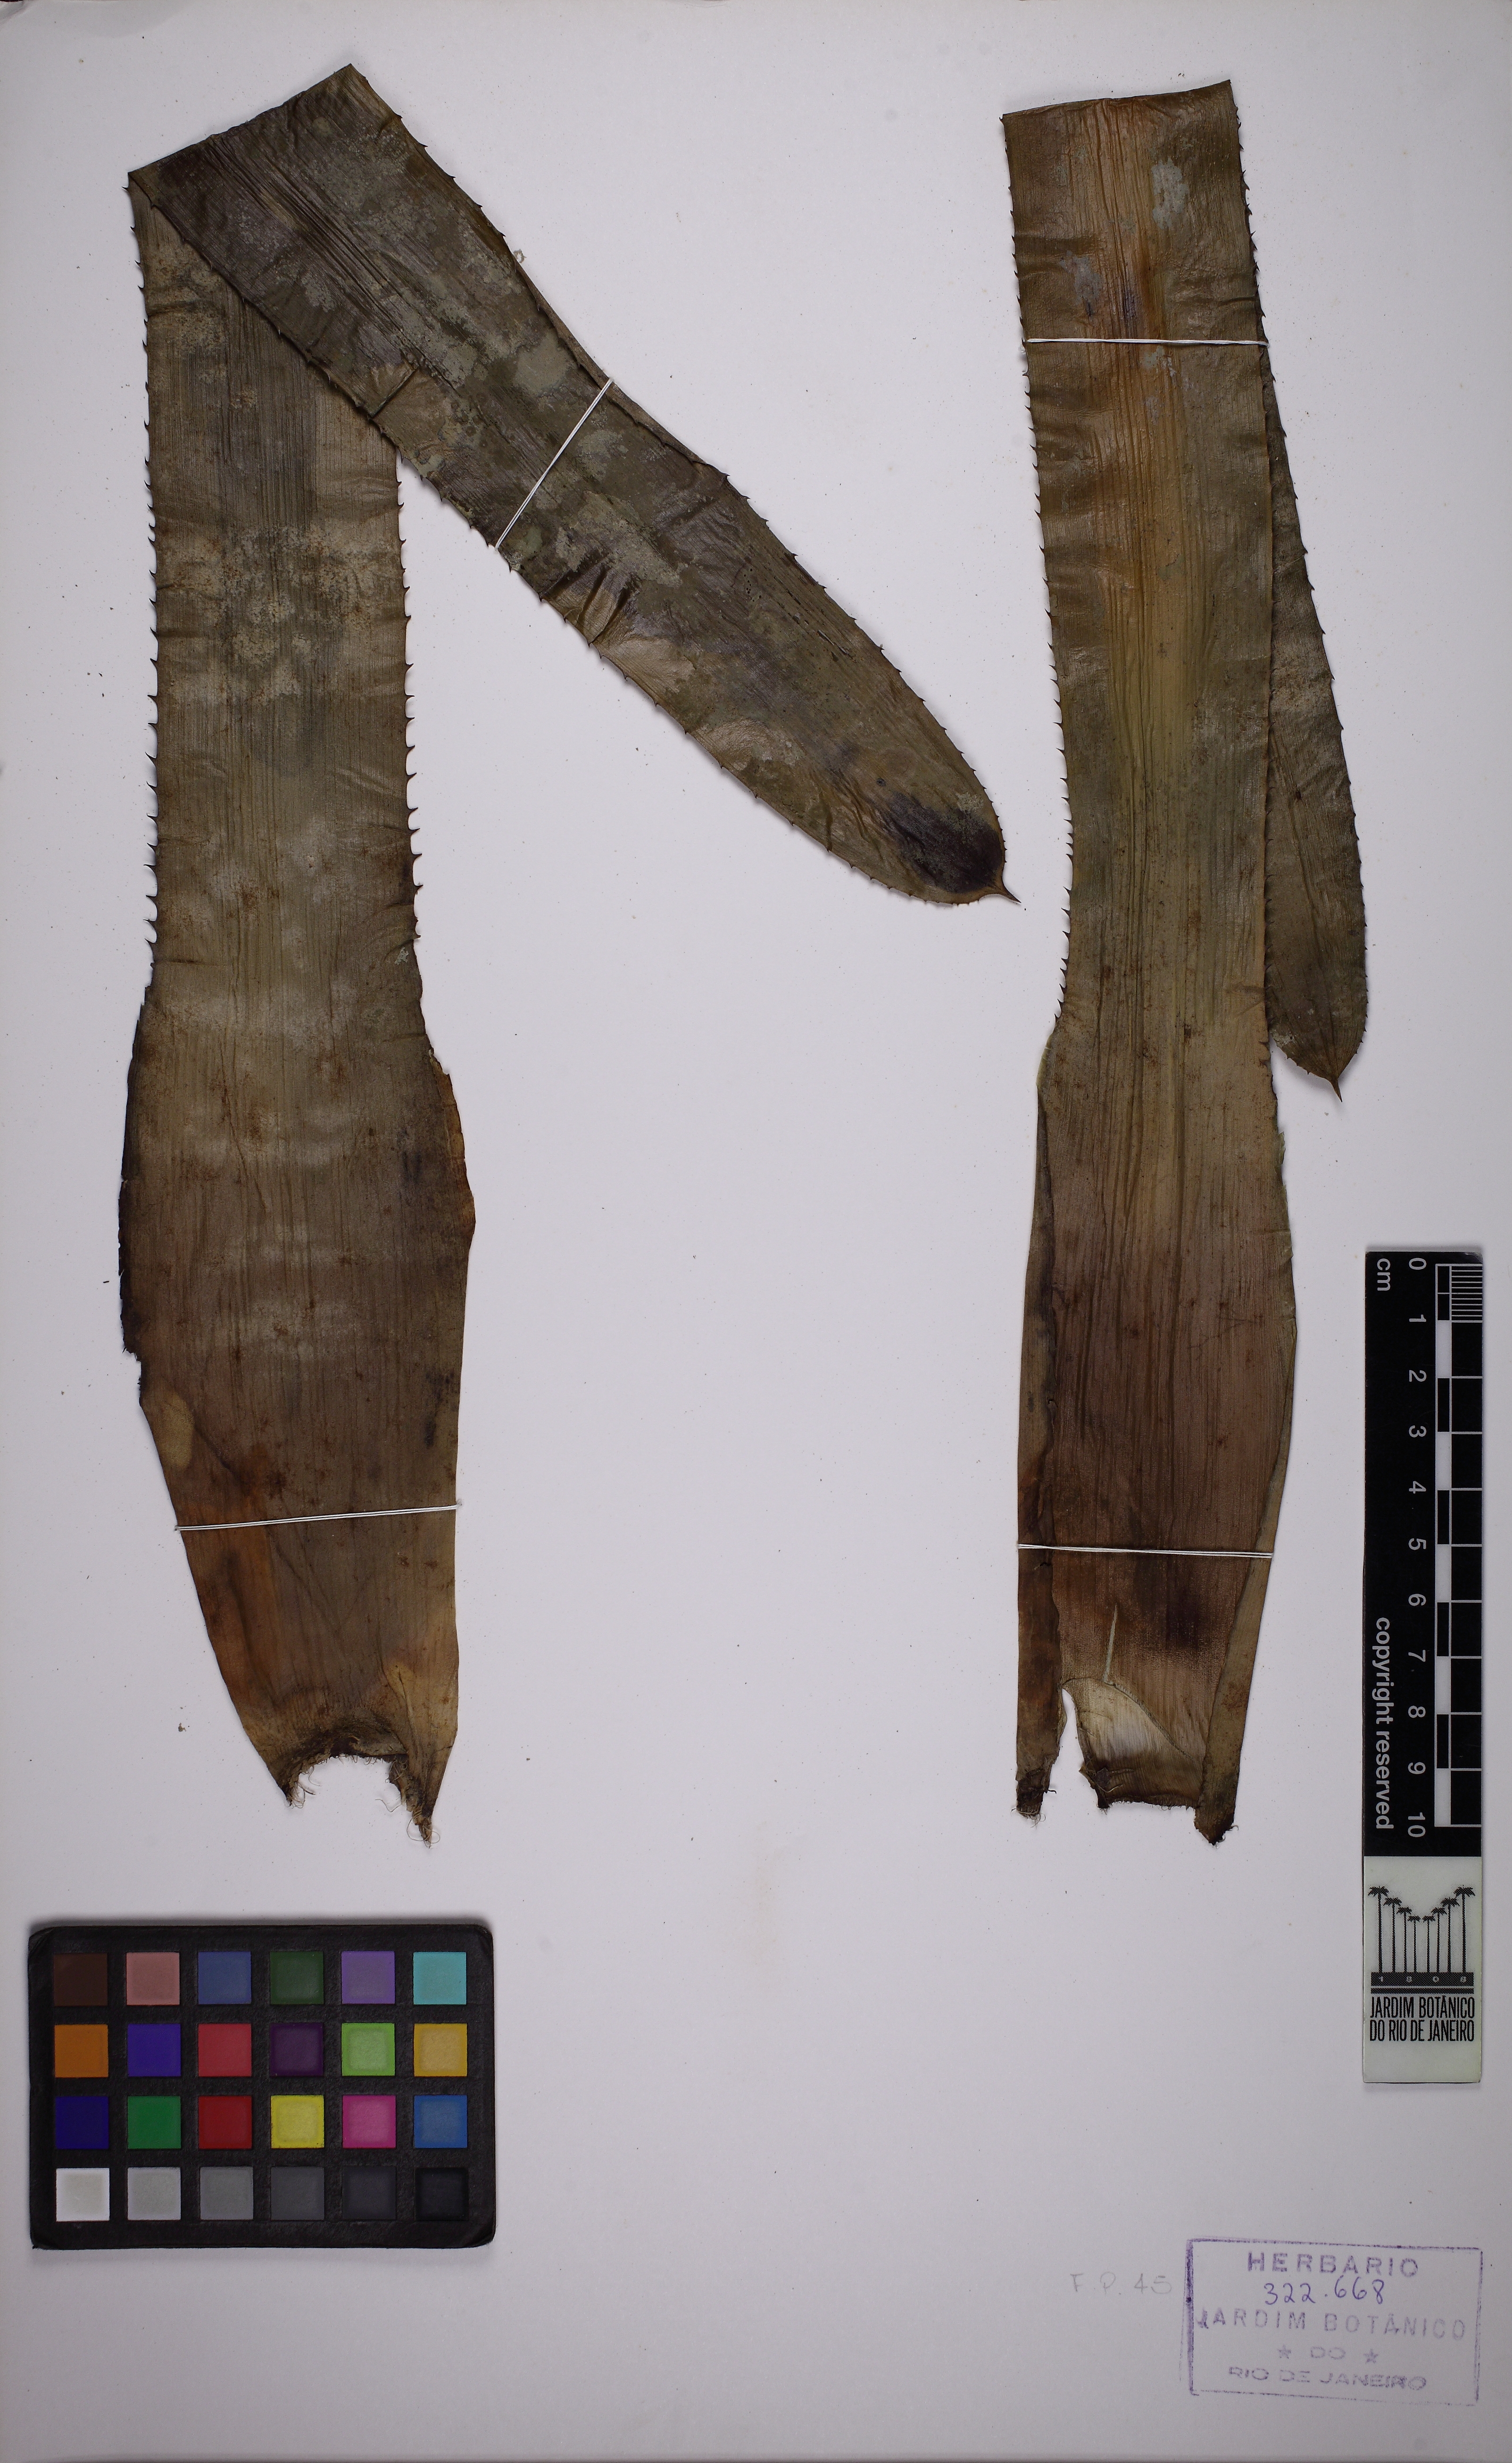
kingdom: Plantae
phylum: Tracheophyta
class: Liliopsida
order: Poales
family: Bromeliaceae
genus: Aechmea
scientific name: Aechmea fasciata
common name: Urnplant
